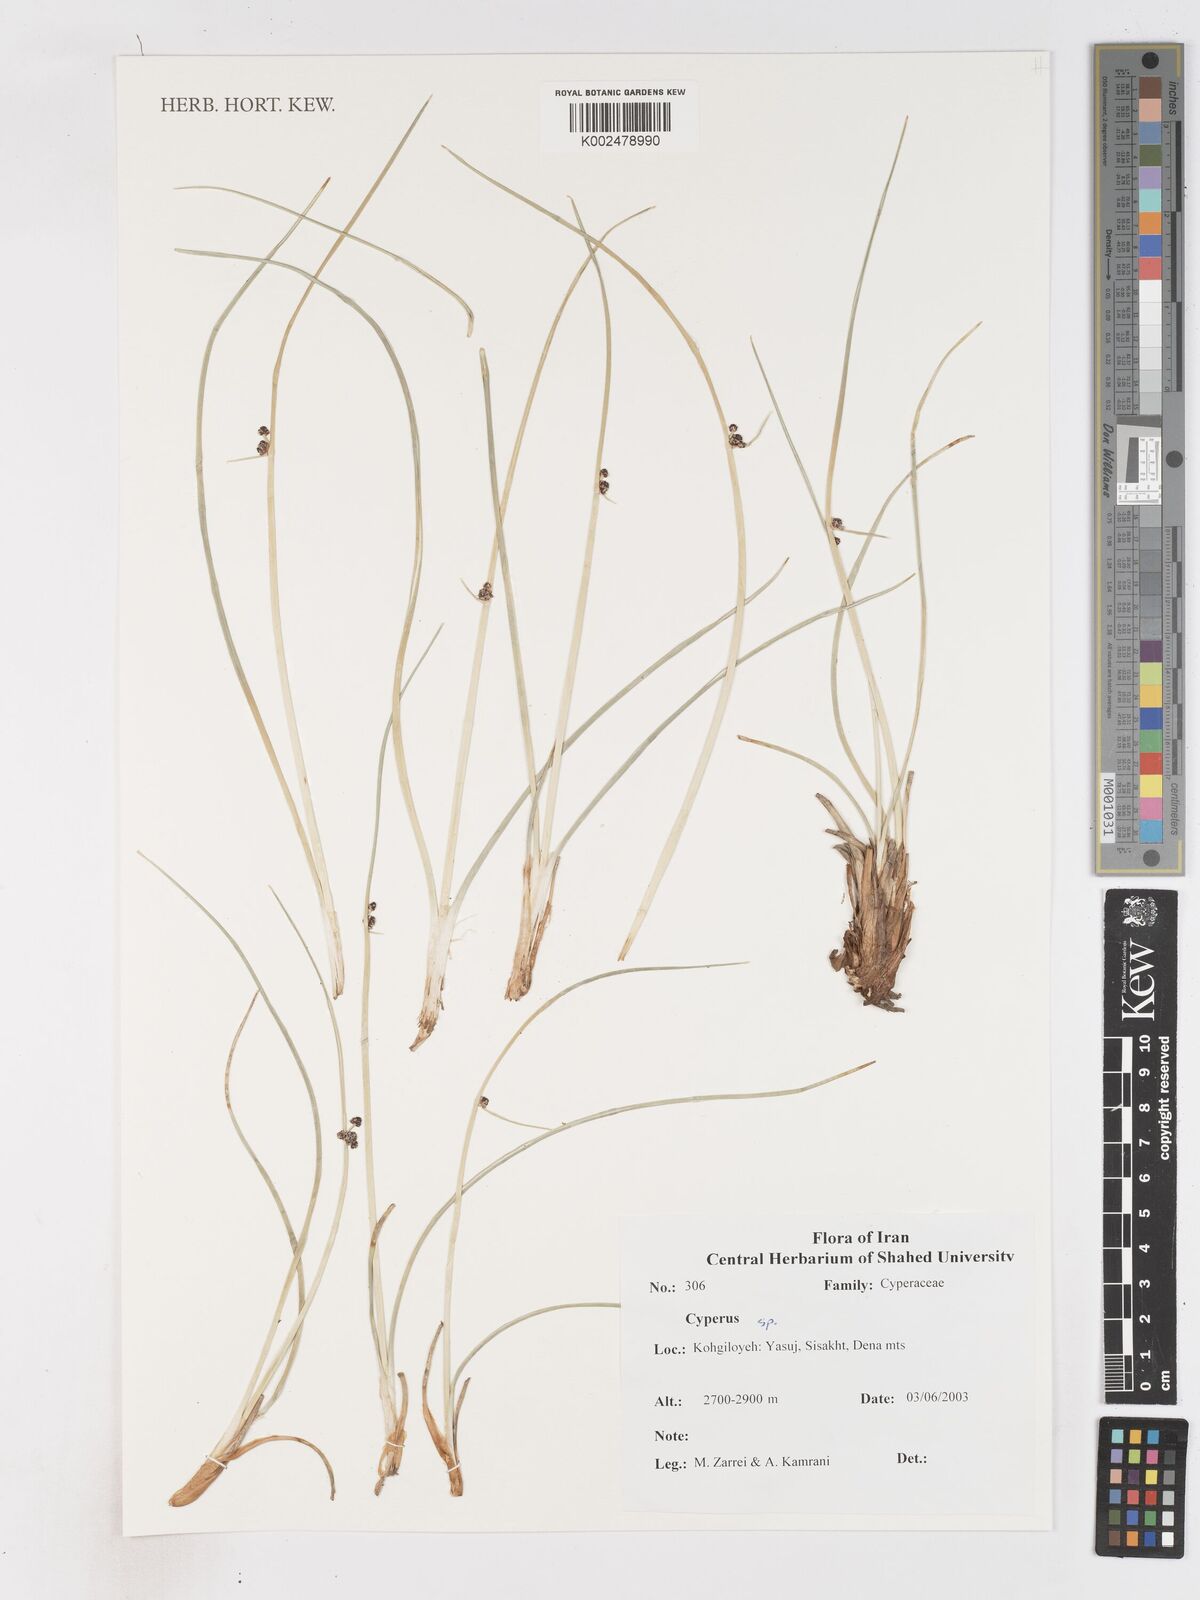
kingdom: Plantae
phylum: Tracheophyta
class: Liliopsida
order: Poales
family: Cyperaceae
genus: Cyperus
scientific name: Cyperus
